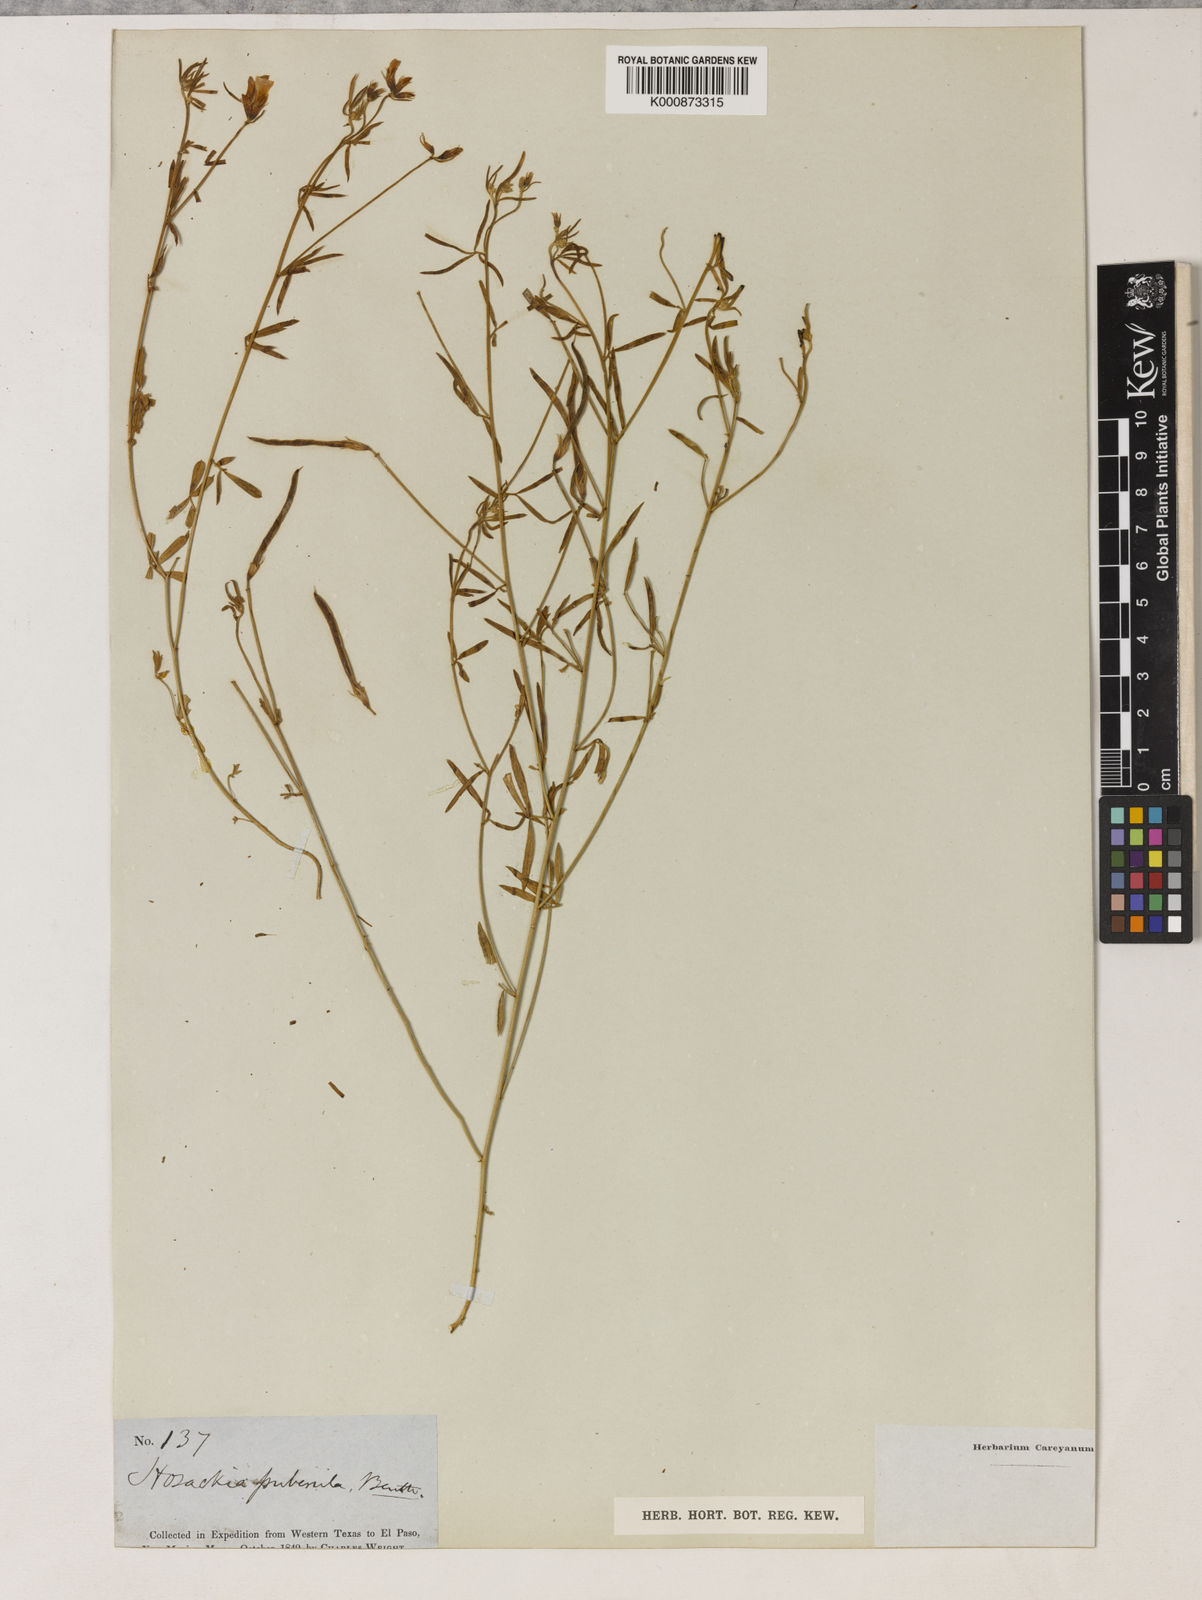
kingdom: Plantae
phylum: Tracheophyta
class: Magnoliopsida
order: Fabales
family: Fabaceae
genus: Acmispon
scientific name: Acmispon oroboides
